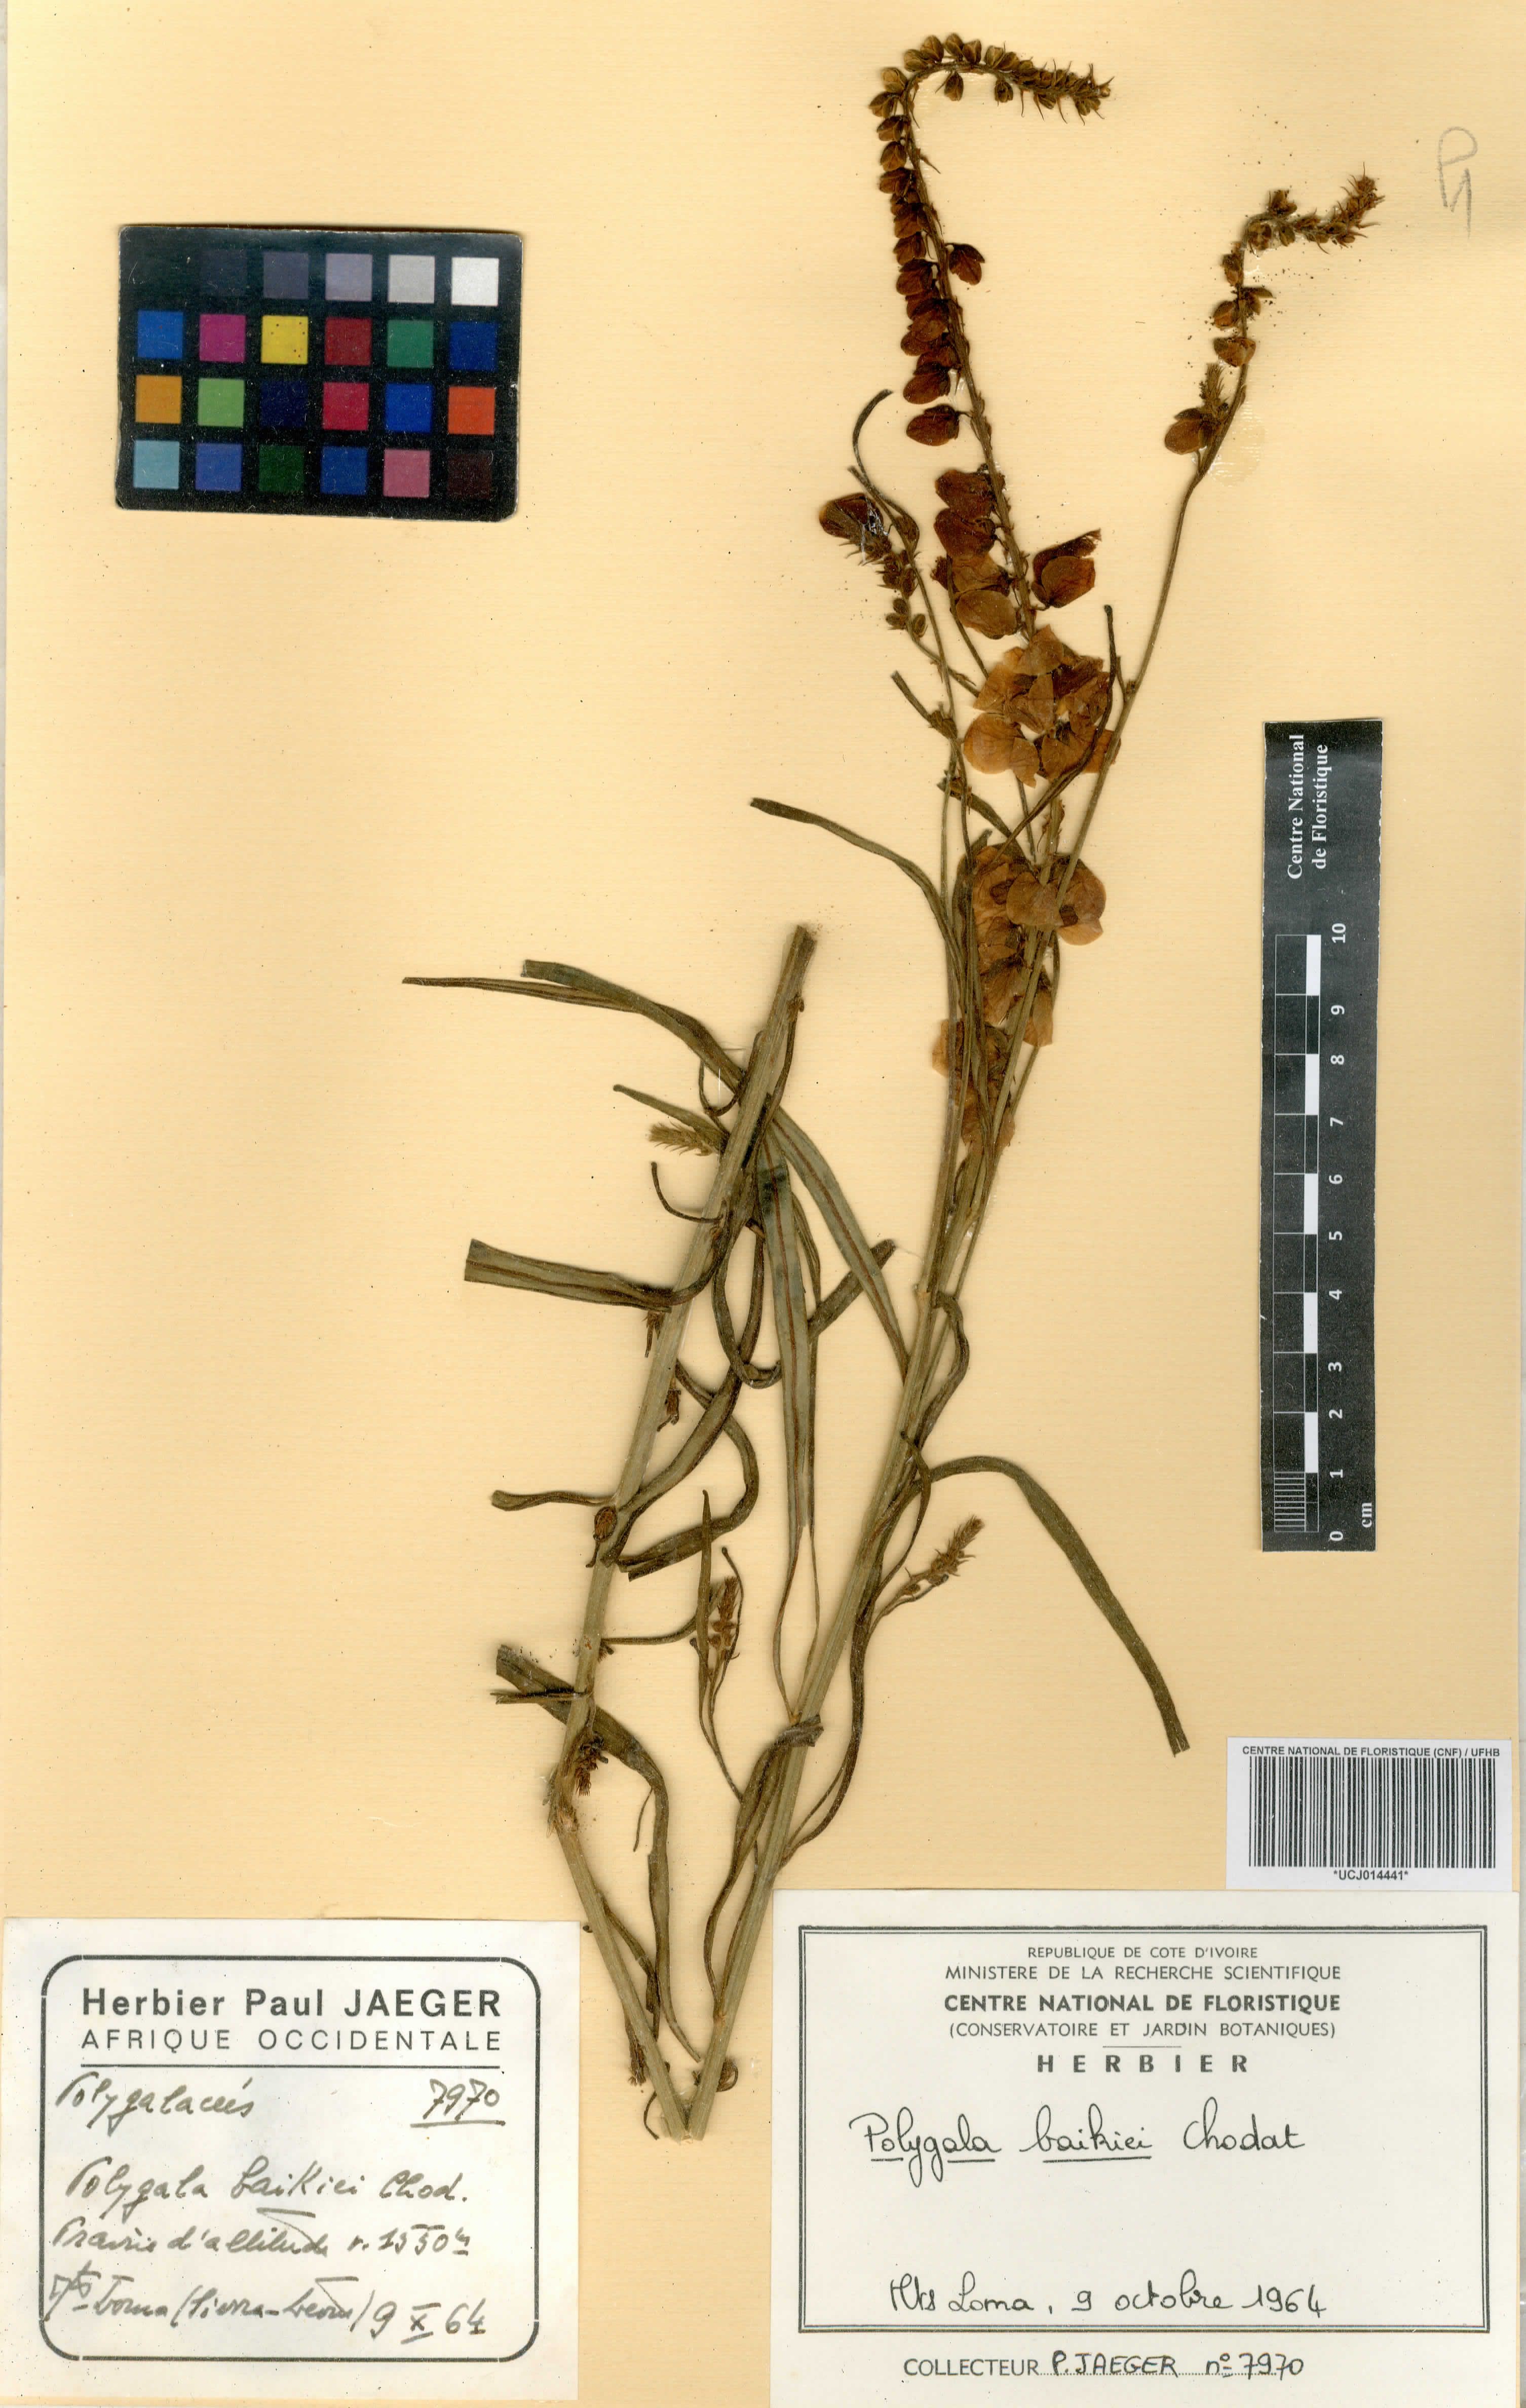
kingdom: Plantae
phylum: Tracheophyta
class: Magnoliopsida
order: Fabales
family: Polygalaceae
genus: Polygala
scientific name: Polygala baikiei
